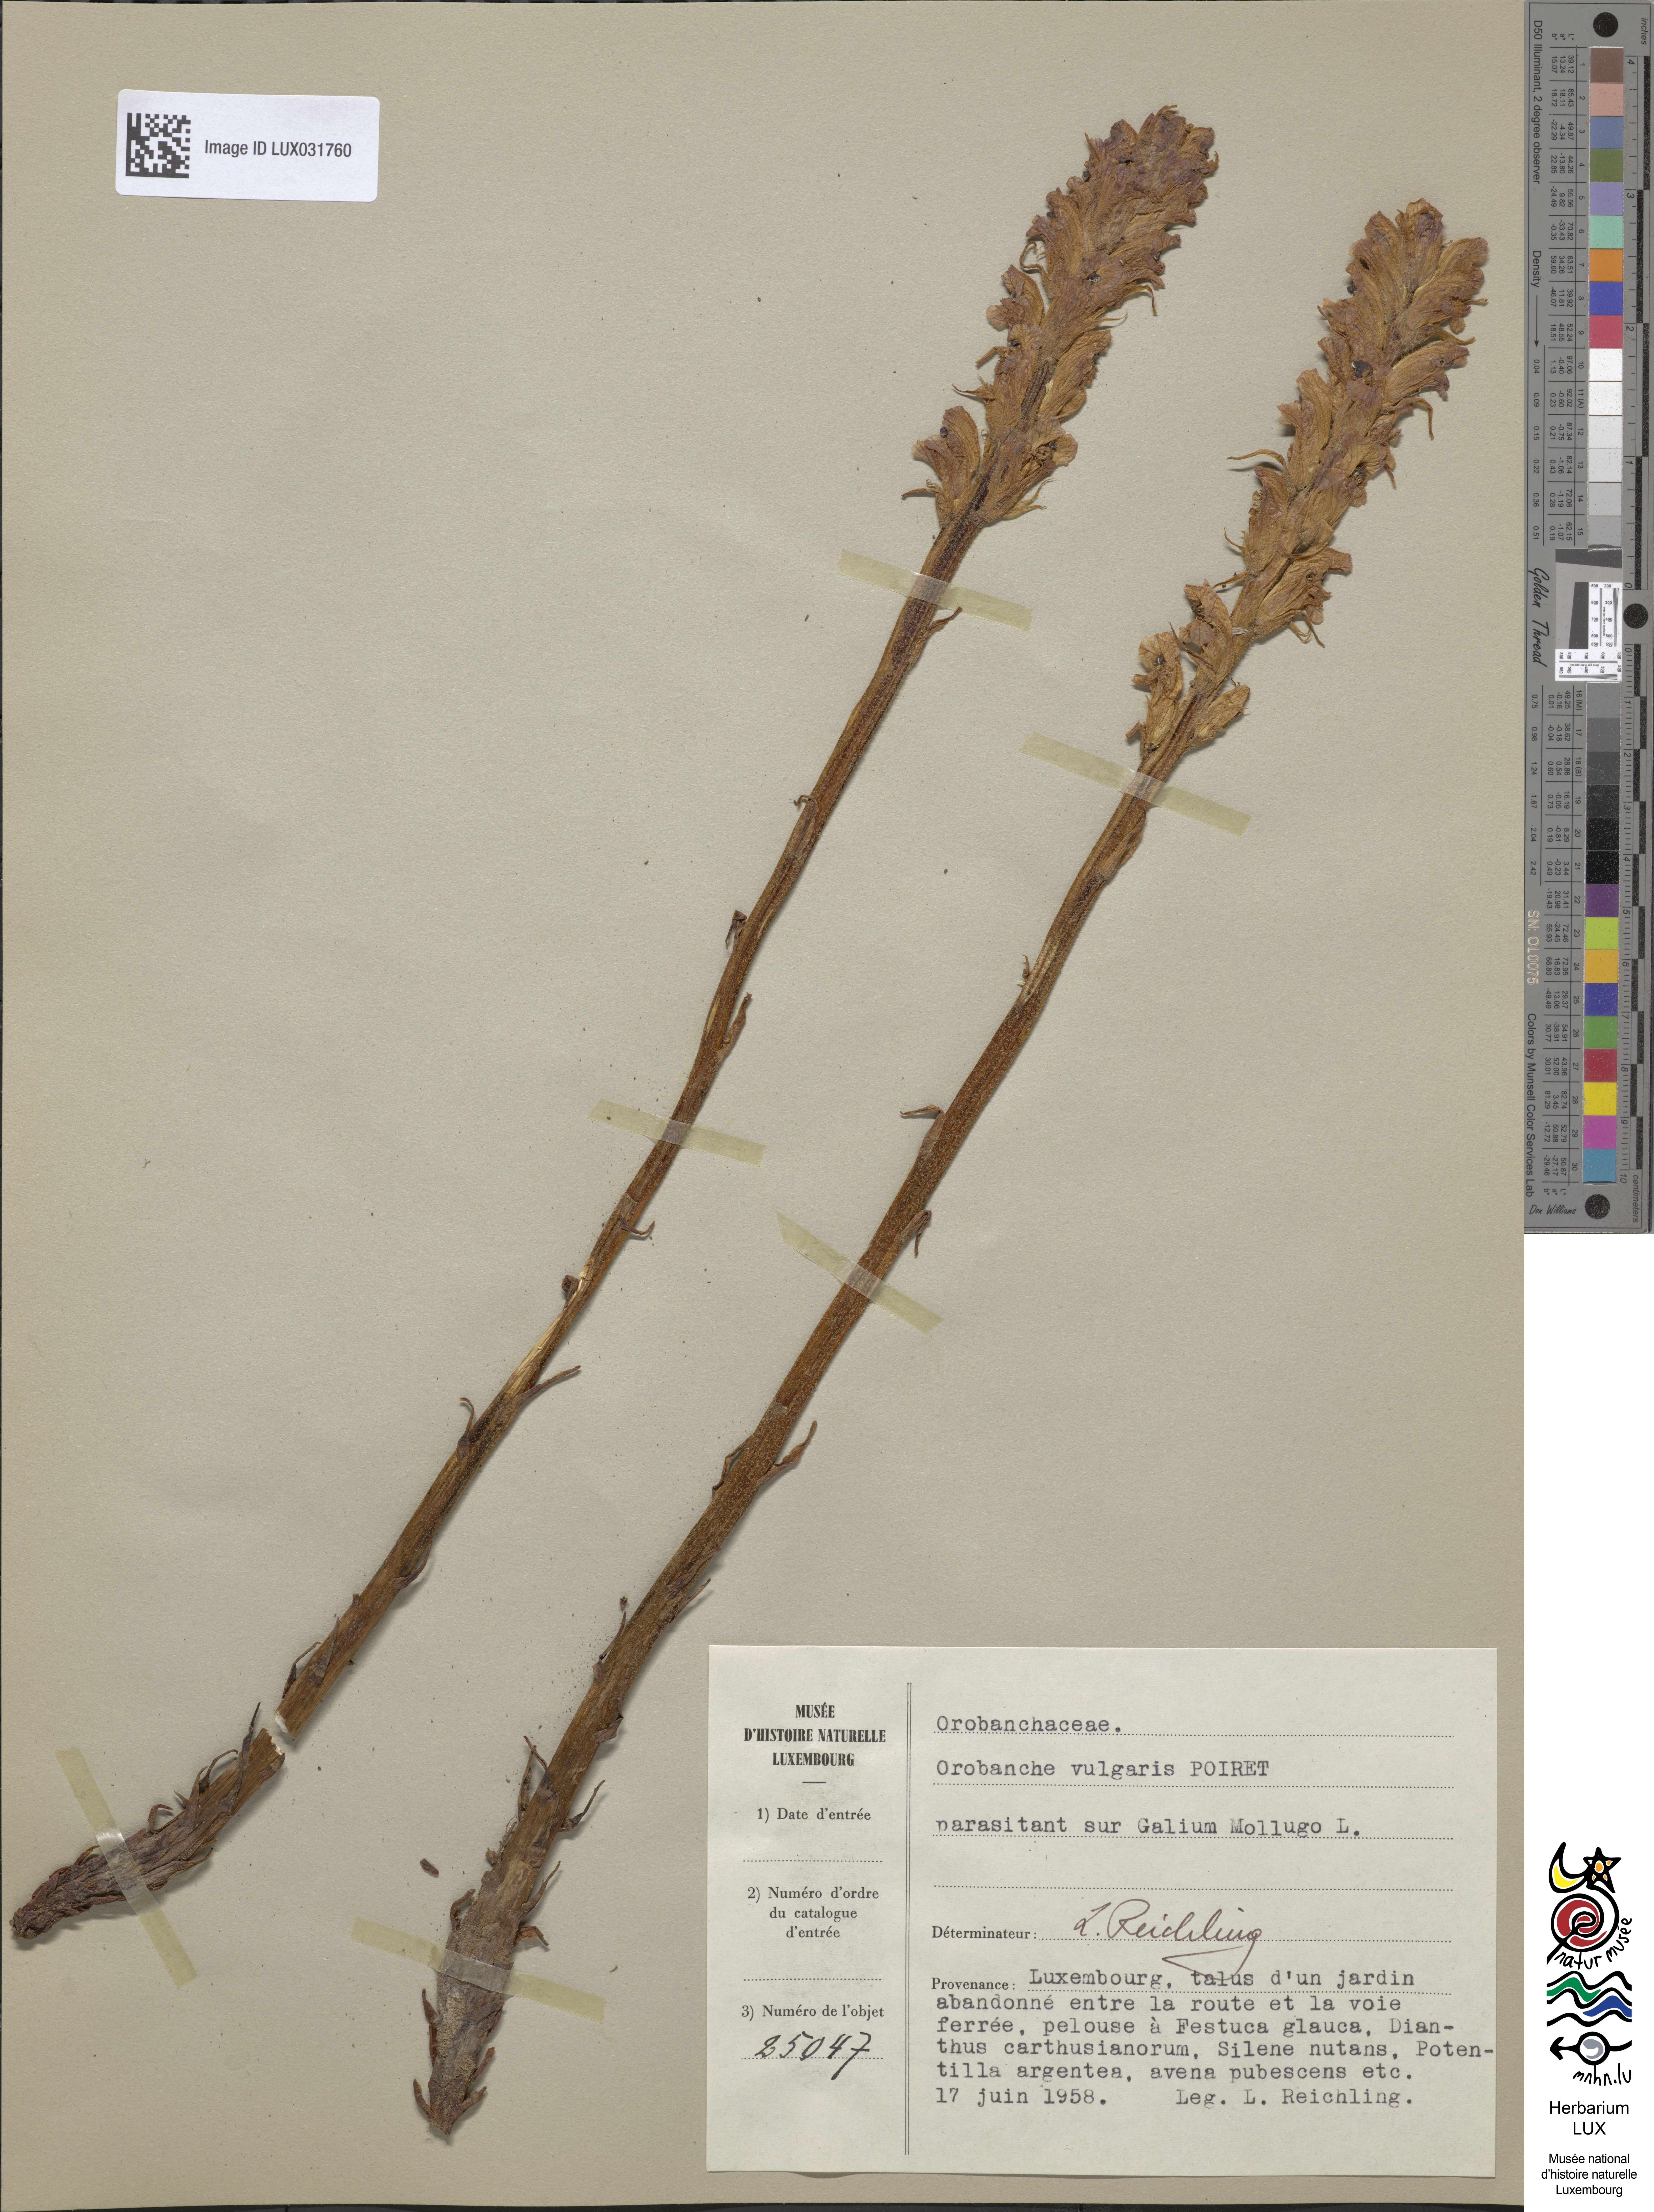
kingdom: Plantae
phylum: Tracheophyta
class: Magnoliopsida
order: Lamiales
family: Orobanchaceae
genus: Orobanche
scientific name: Orobanche caryophyllacea
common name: Bedstraw broomrape
